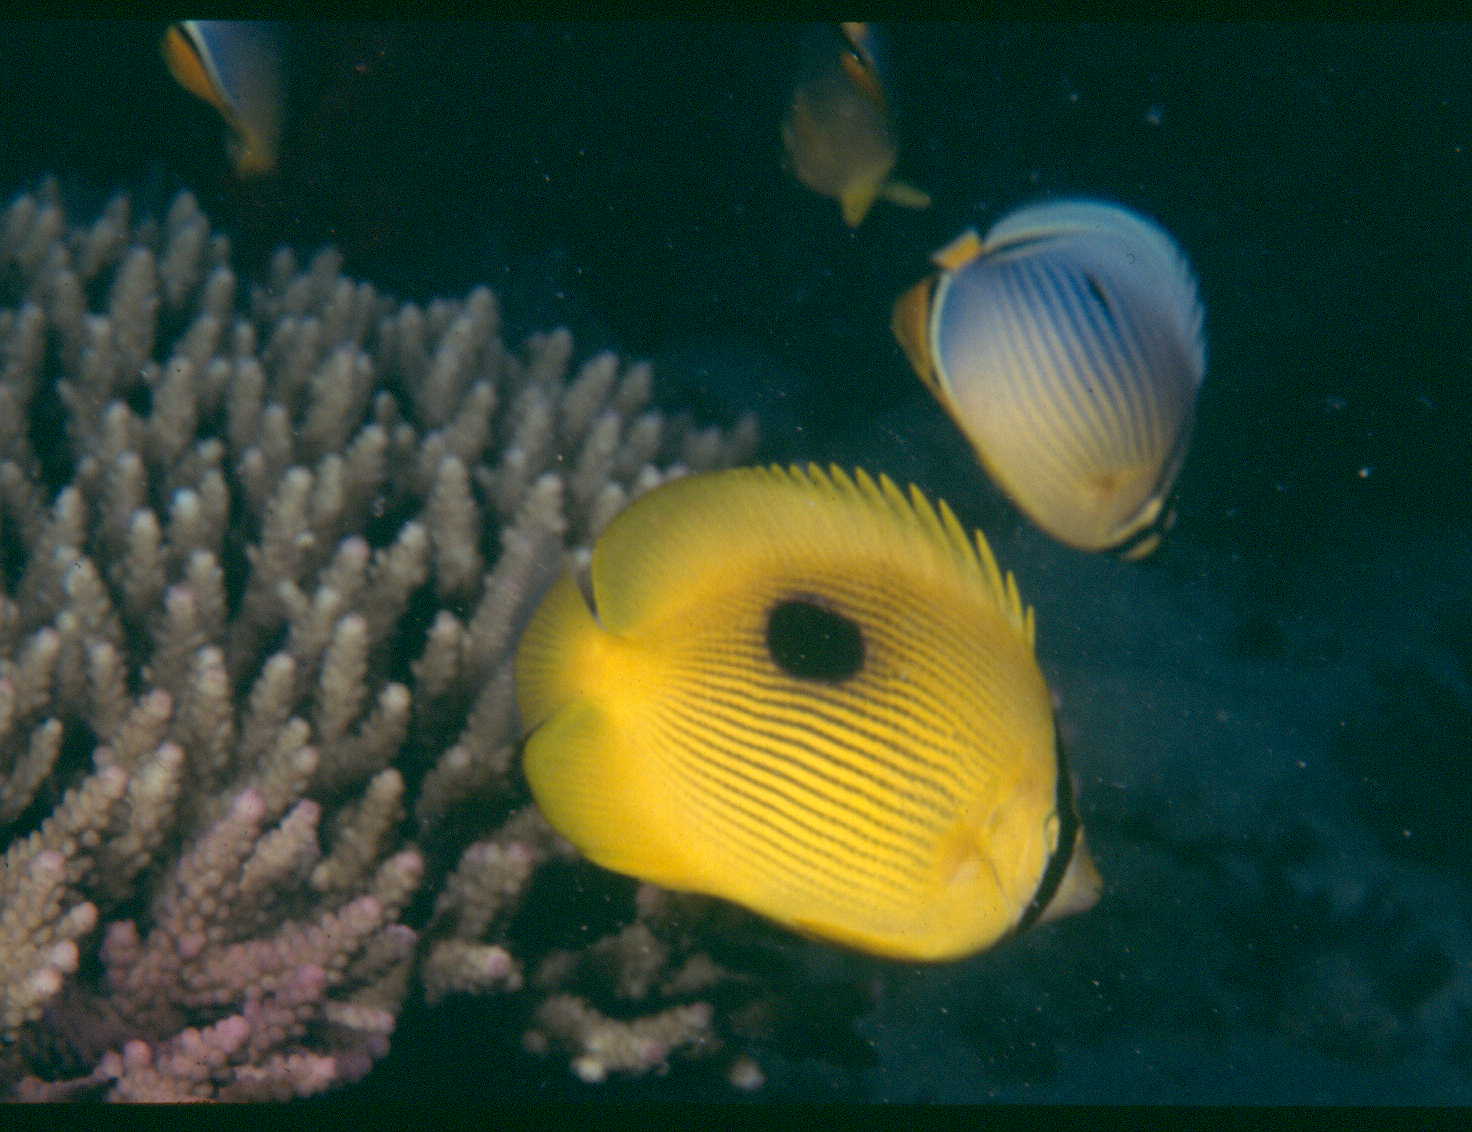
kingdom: Animalia
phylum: Chordata
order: Perciformes
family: Chaetodontidae
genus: Chaetodon
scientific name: Chaetodon zanzibarensis
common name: Zanzibar butterflyfish
